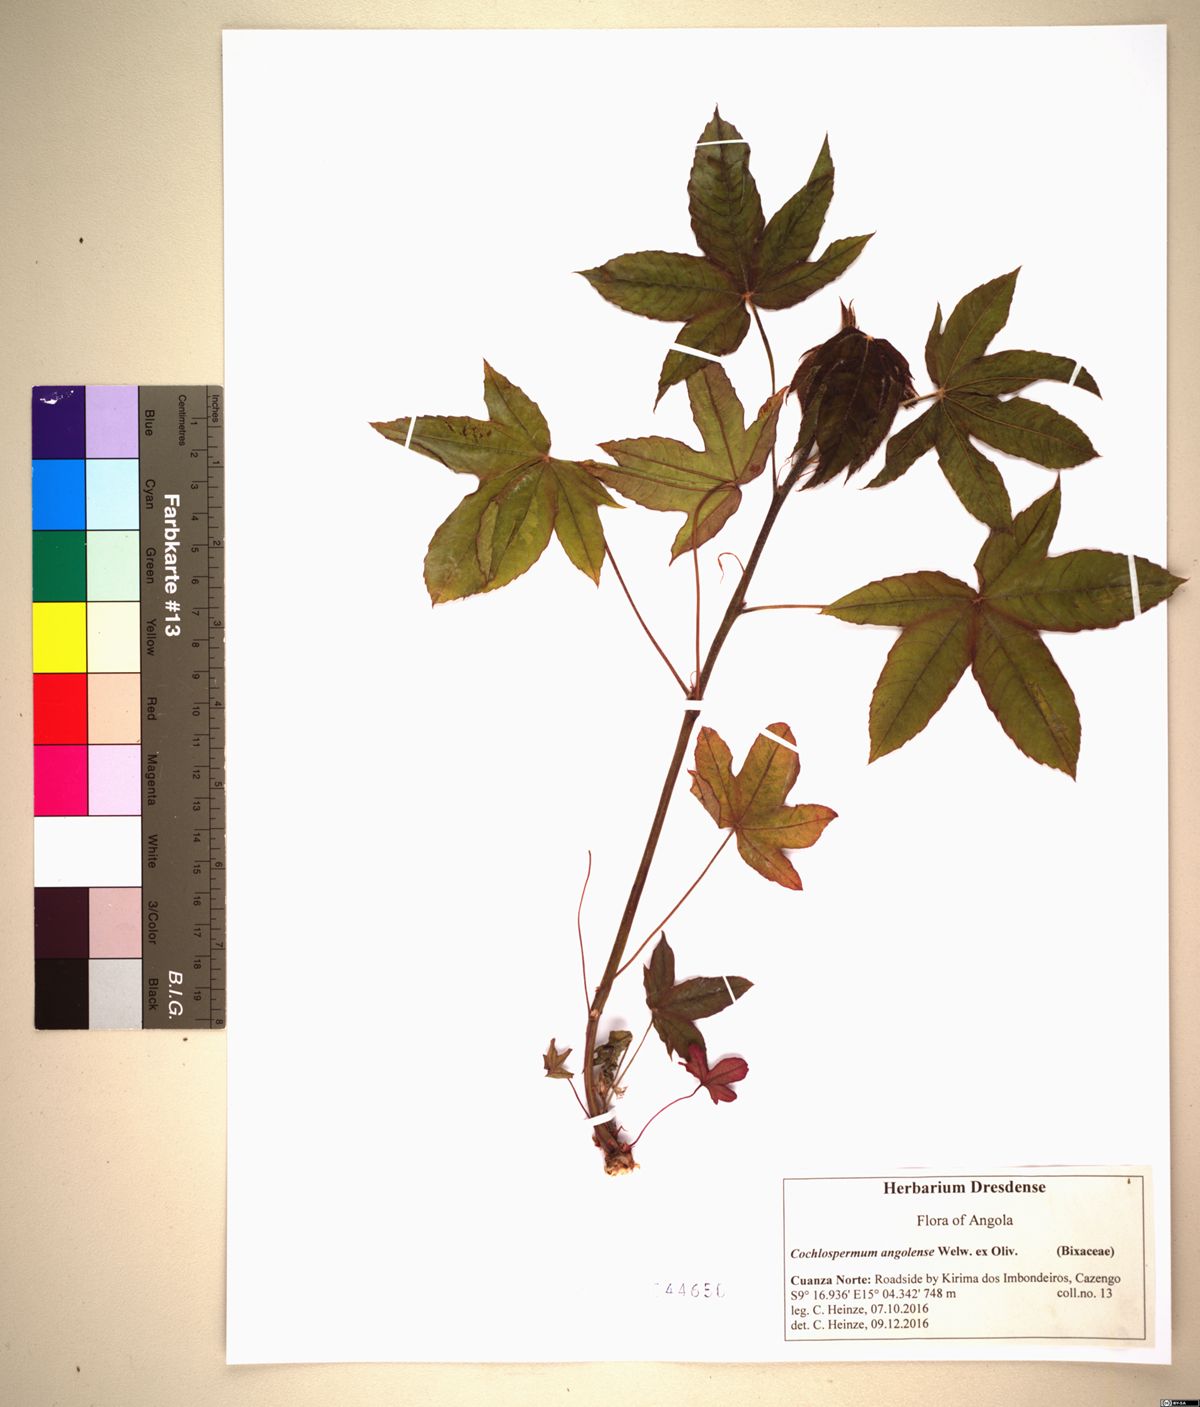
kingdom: Plantae
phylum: Tracheophyta
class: Magnoliopsida
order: Malvales
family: Cochlospermaceae
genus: Cochlospermum
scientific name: Cochlospermum angolense
